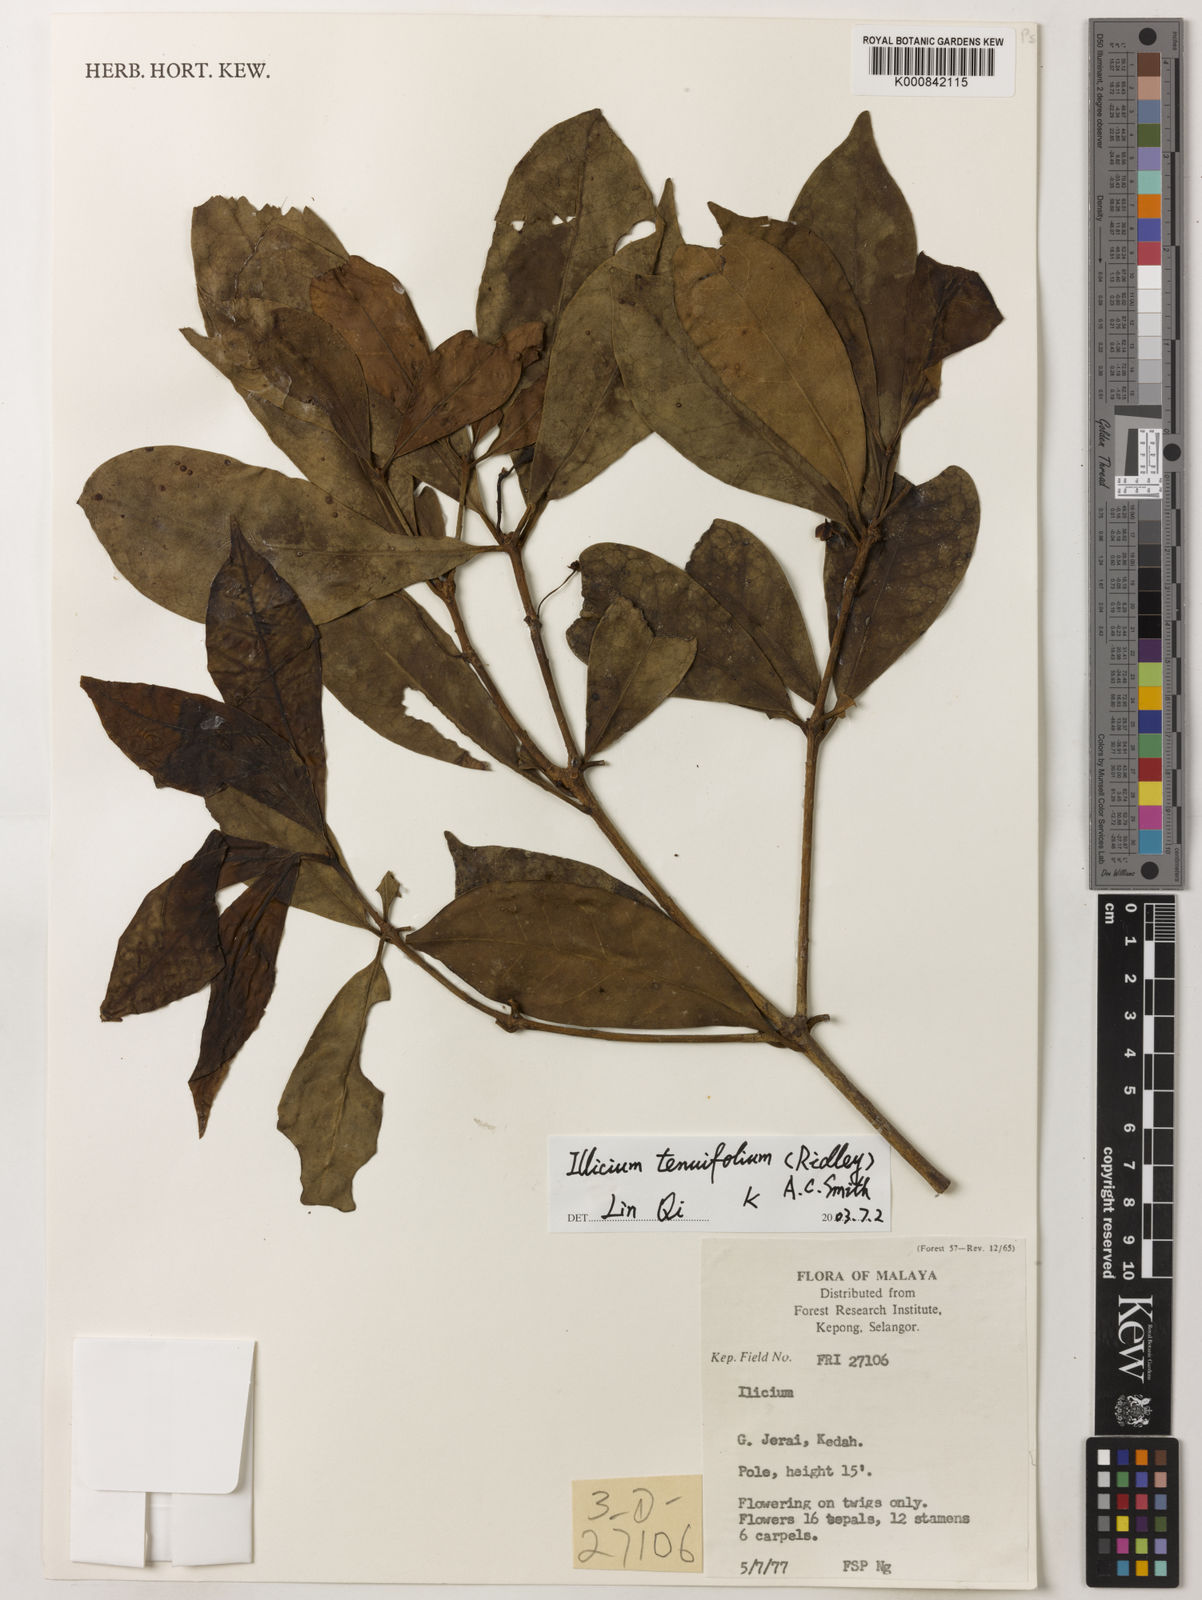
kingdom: Plantae
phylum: Tracheophyta
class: Magnoliopsida
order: Austrobaileyales
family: Schisandraceae
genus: Illicium
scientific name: Illicium tenuifolium
